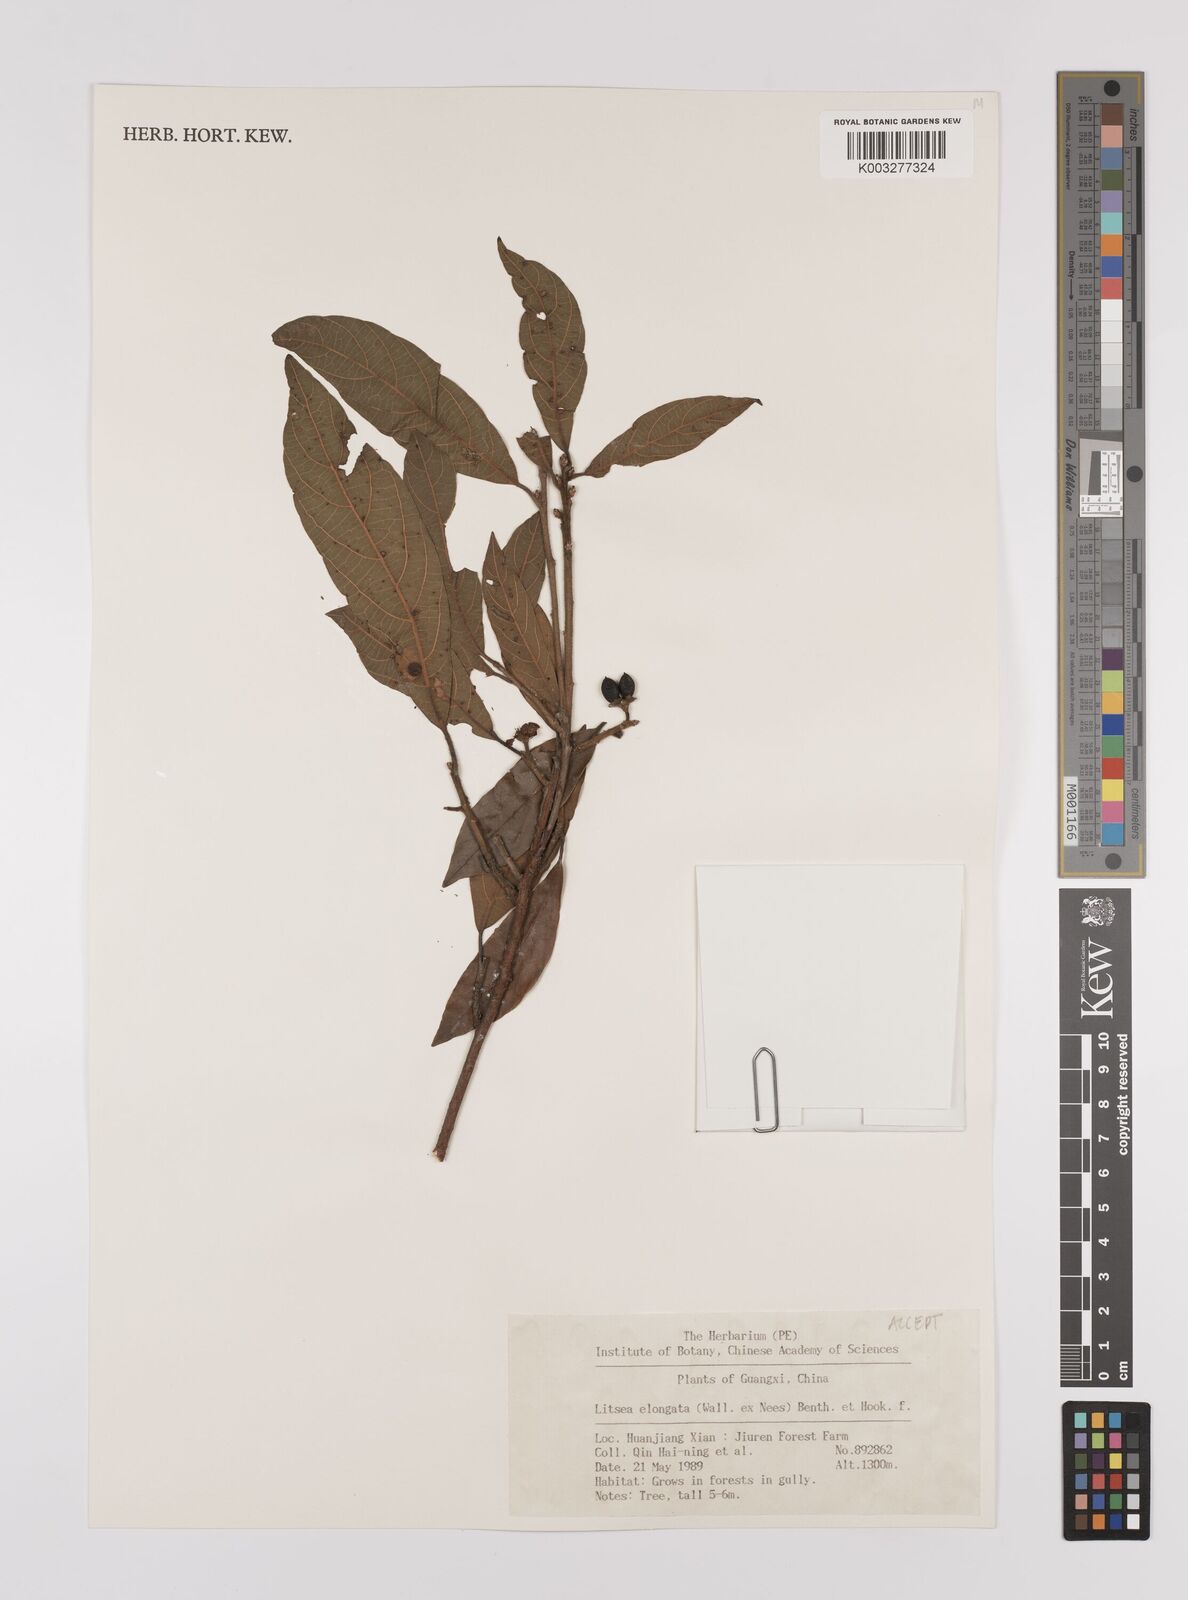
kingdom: Plantae
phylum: Tracheophyta
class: Magnoliopsida
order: Laurales
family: Lauraceae
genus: Litsea
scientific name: Litsea elongata
